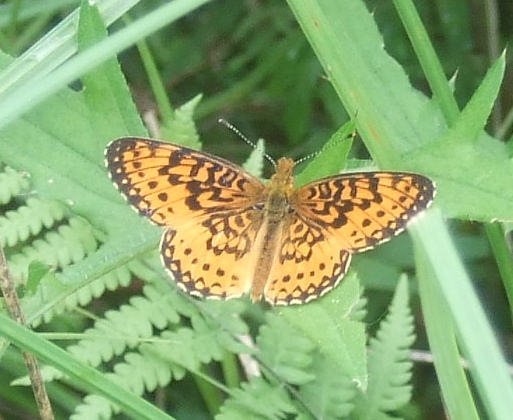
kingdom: Animalia
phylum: Arthropoda
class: Insecta
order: Lepidoptera
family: Nymphalidae
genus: Boloria
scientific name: Boloria
